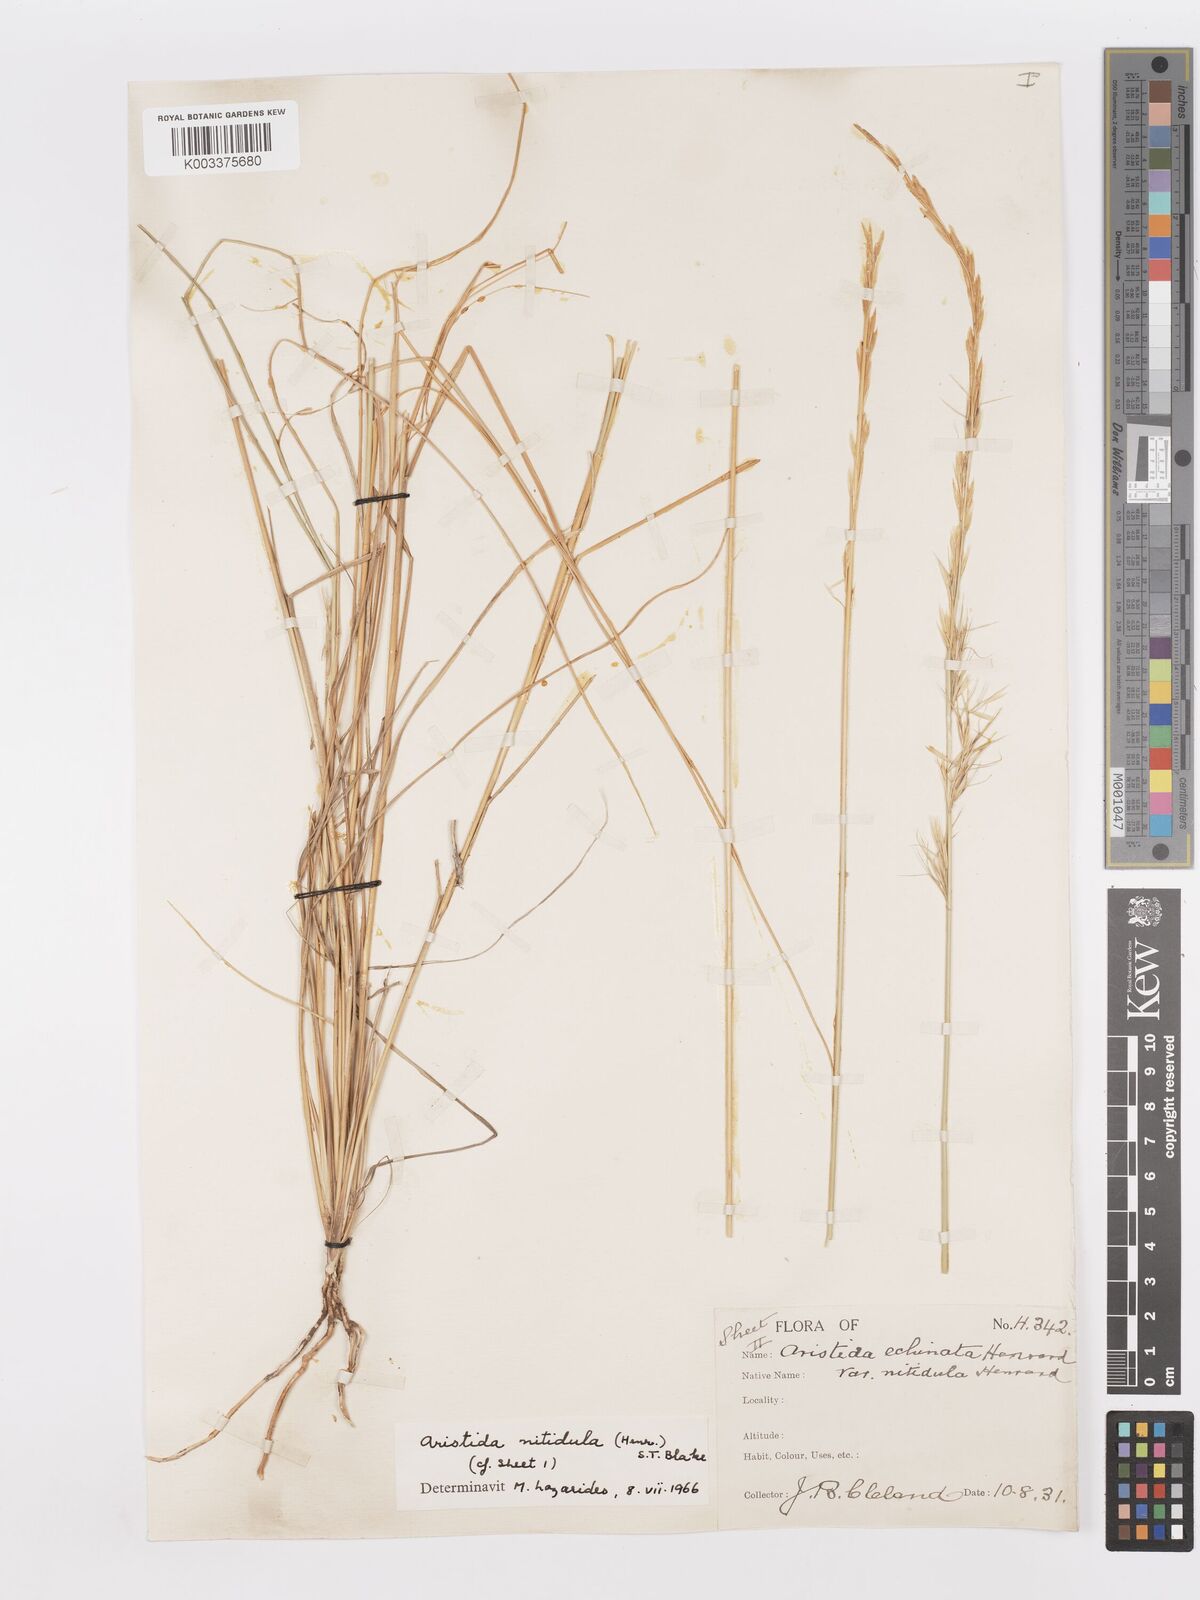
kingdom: Plantae
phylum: Tracheophyta
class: Liliopsida
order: Poales
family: Poaceae
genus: Aristida
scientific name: Aristida nitidula
